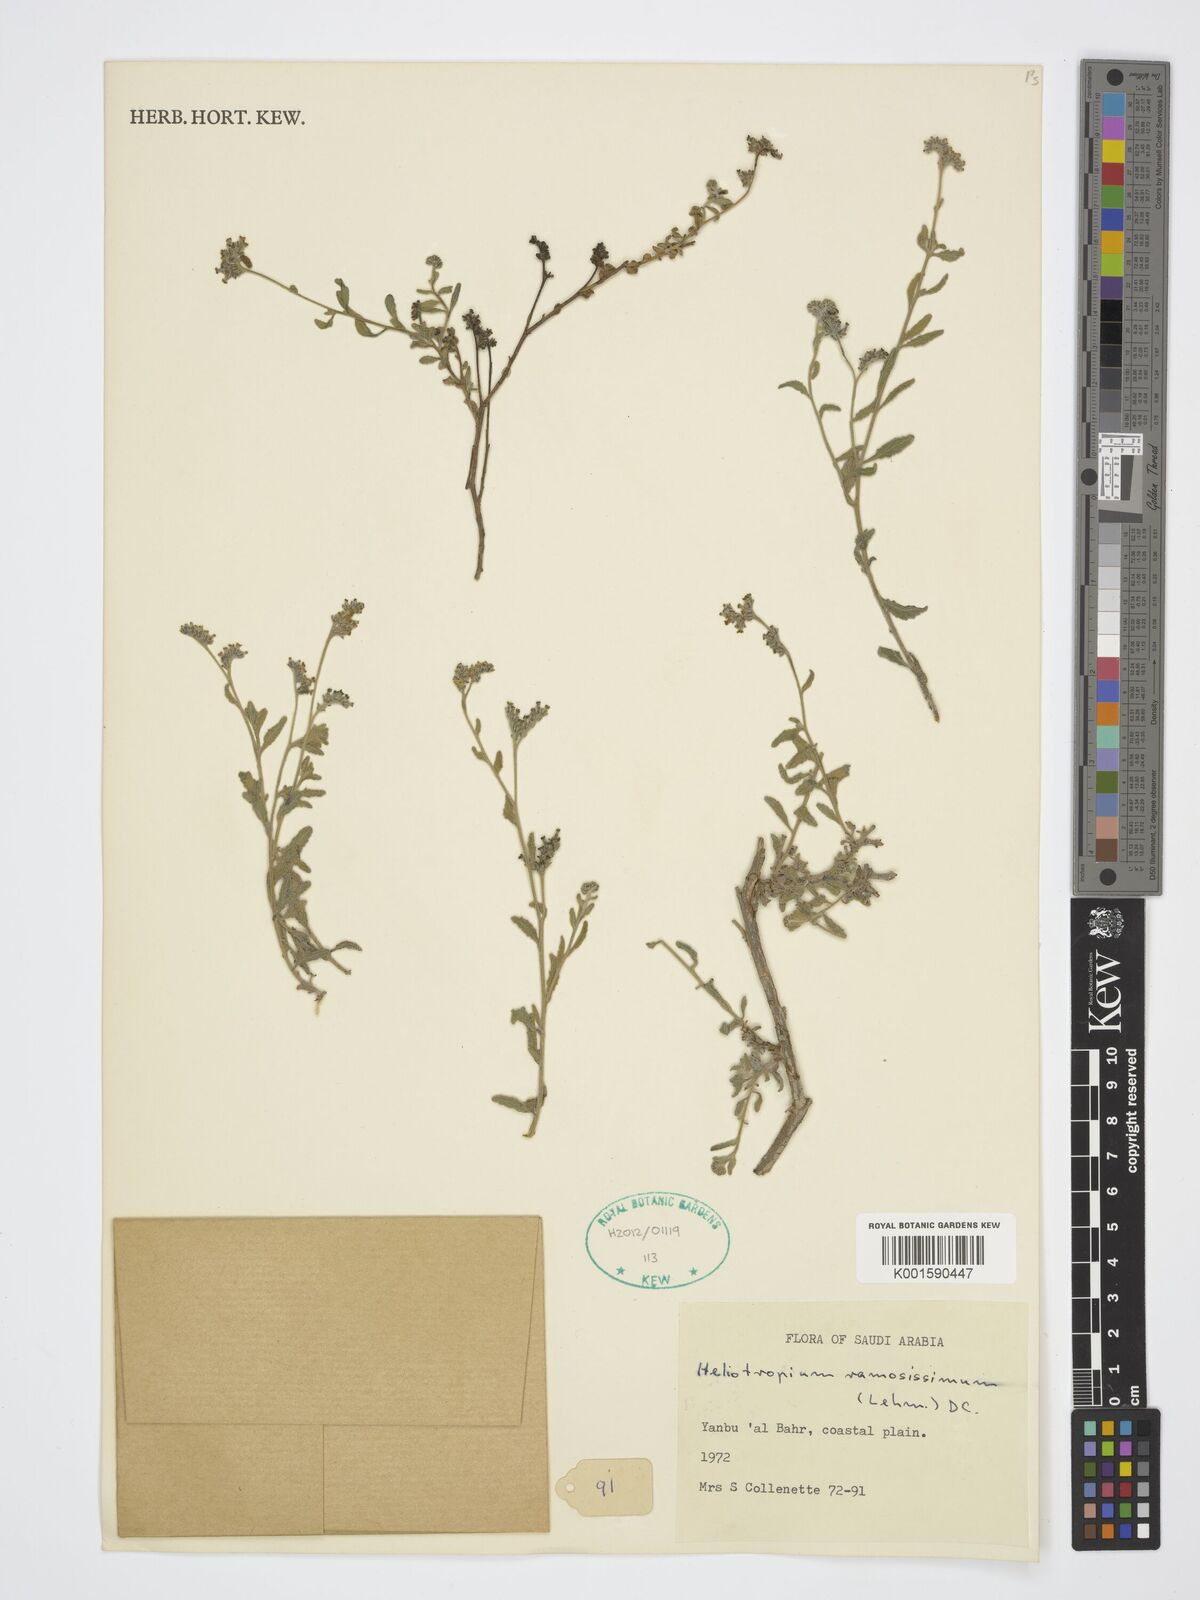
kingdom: Plantae
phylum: Tracheophyta
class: Magnoliopsida
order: Boraginales
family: Heliotropiaceae
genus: Heliotropium
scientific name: Heliotropium ramosissimum
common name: Wavy heliotrope
